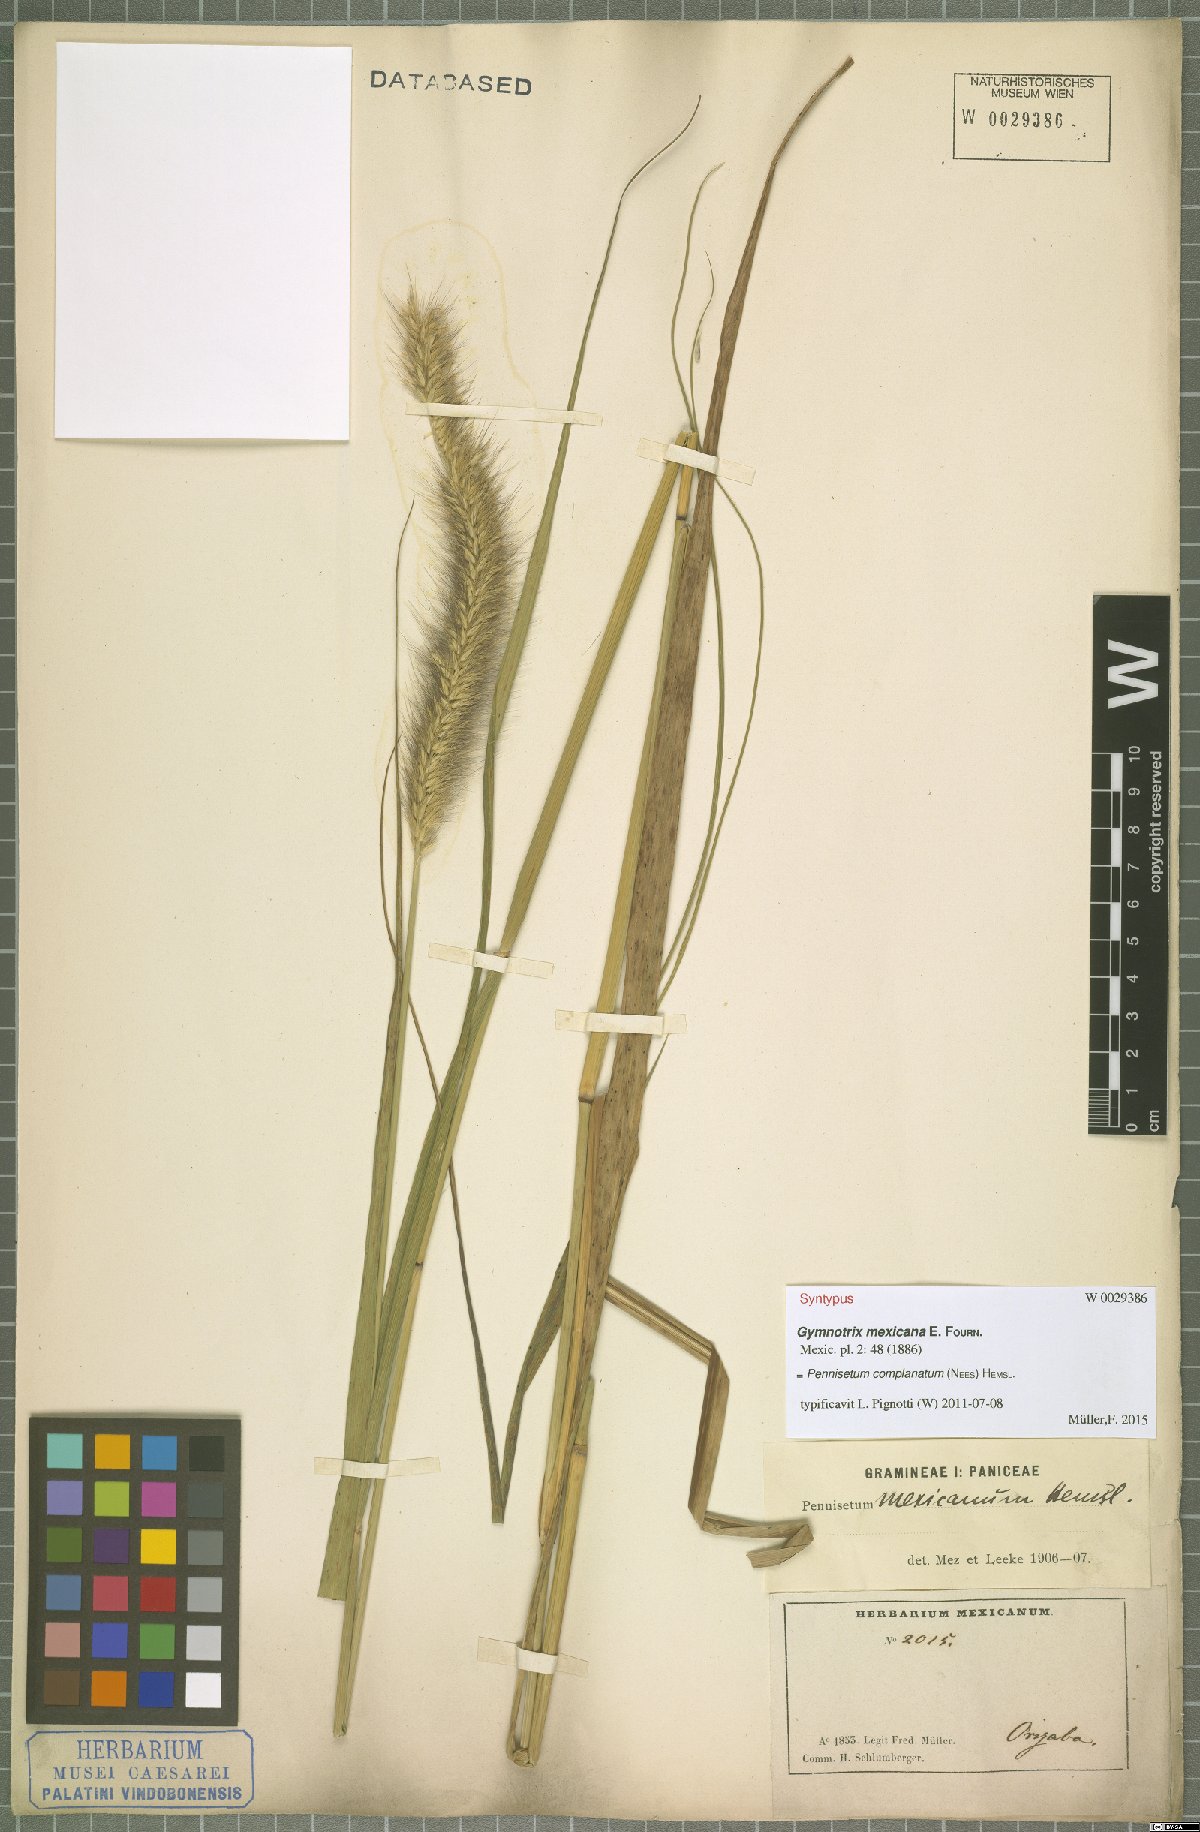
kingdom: Plantae
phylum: Tracheophyta
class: Liliopsida
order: Poales
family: Poaceae
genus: Cenchrus
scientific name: Cenchrus complanatus
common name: Nicaraguan fountaingrass
